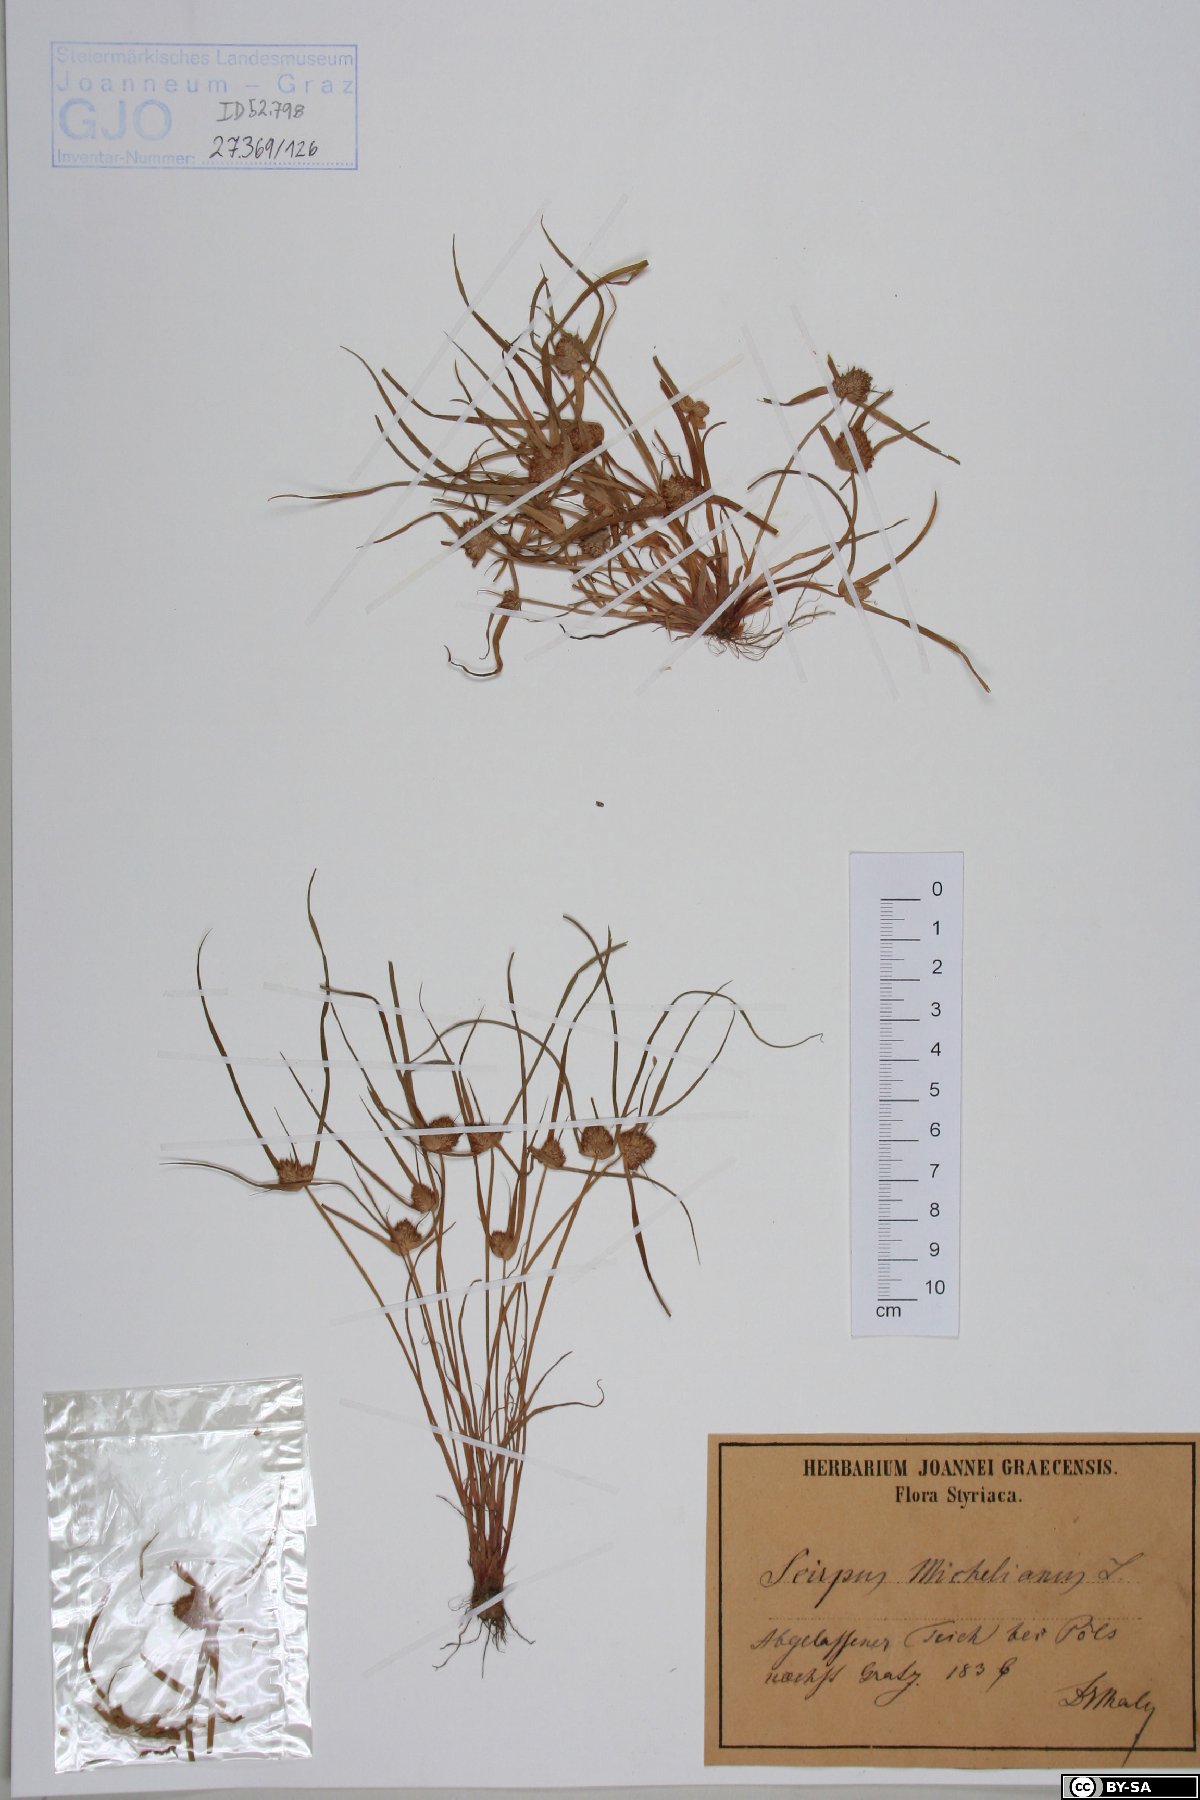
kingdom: Plantae
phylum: Tracheophyta
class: Liliopsida
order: Poales
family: Cyperaceae
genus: Cyperus
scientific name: Cyperus michelianus
